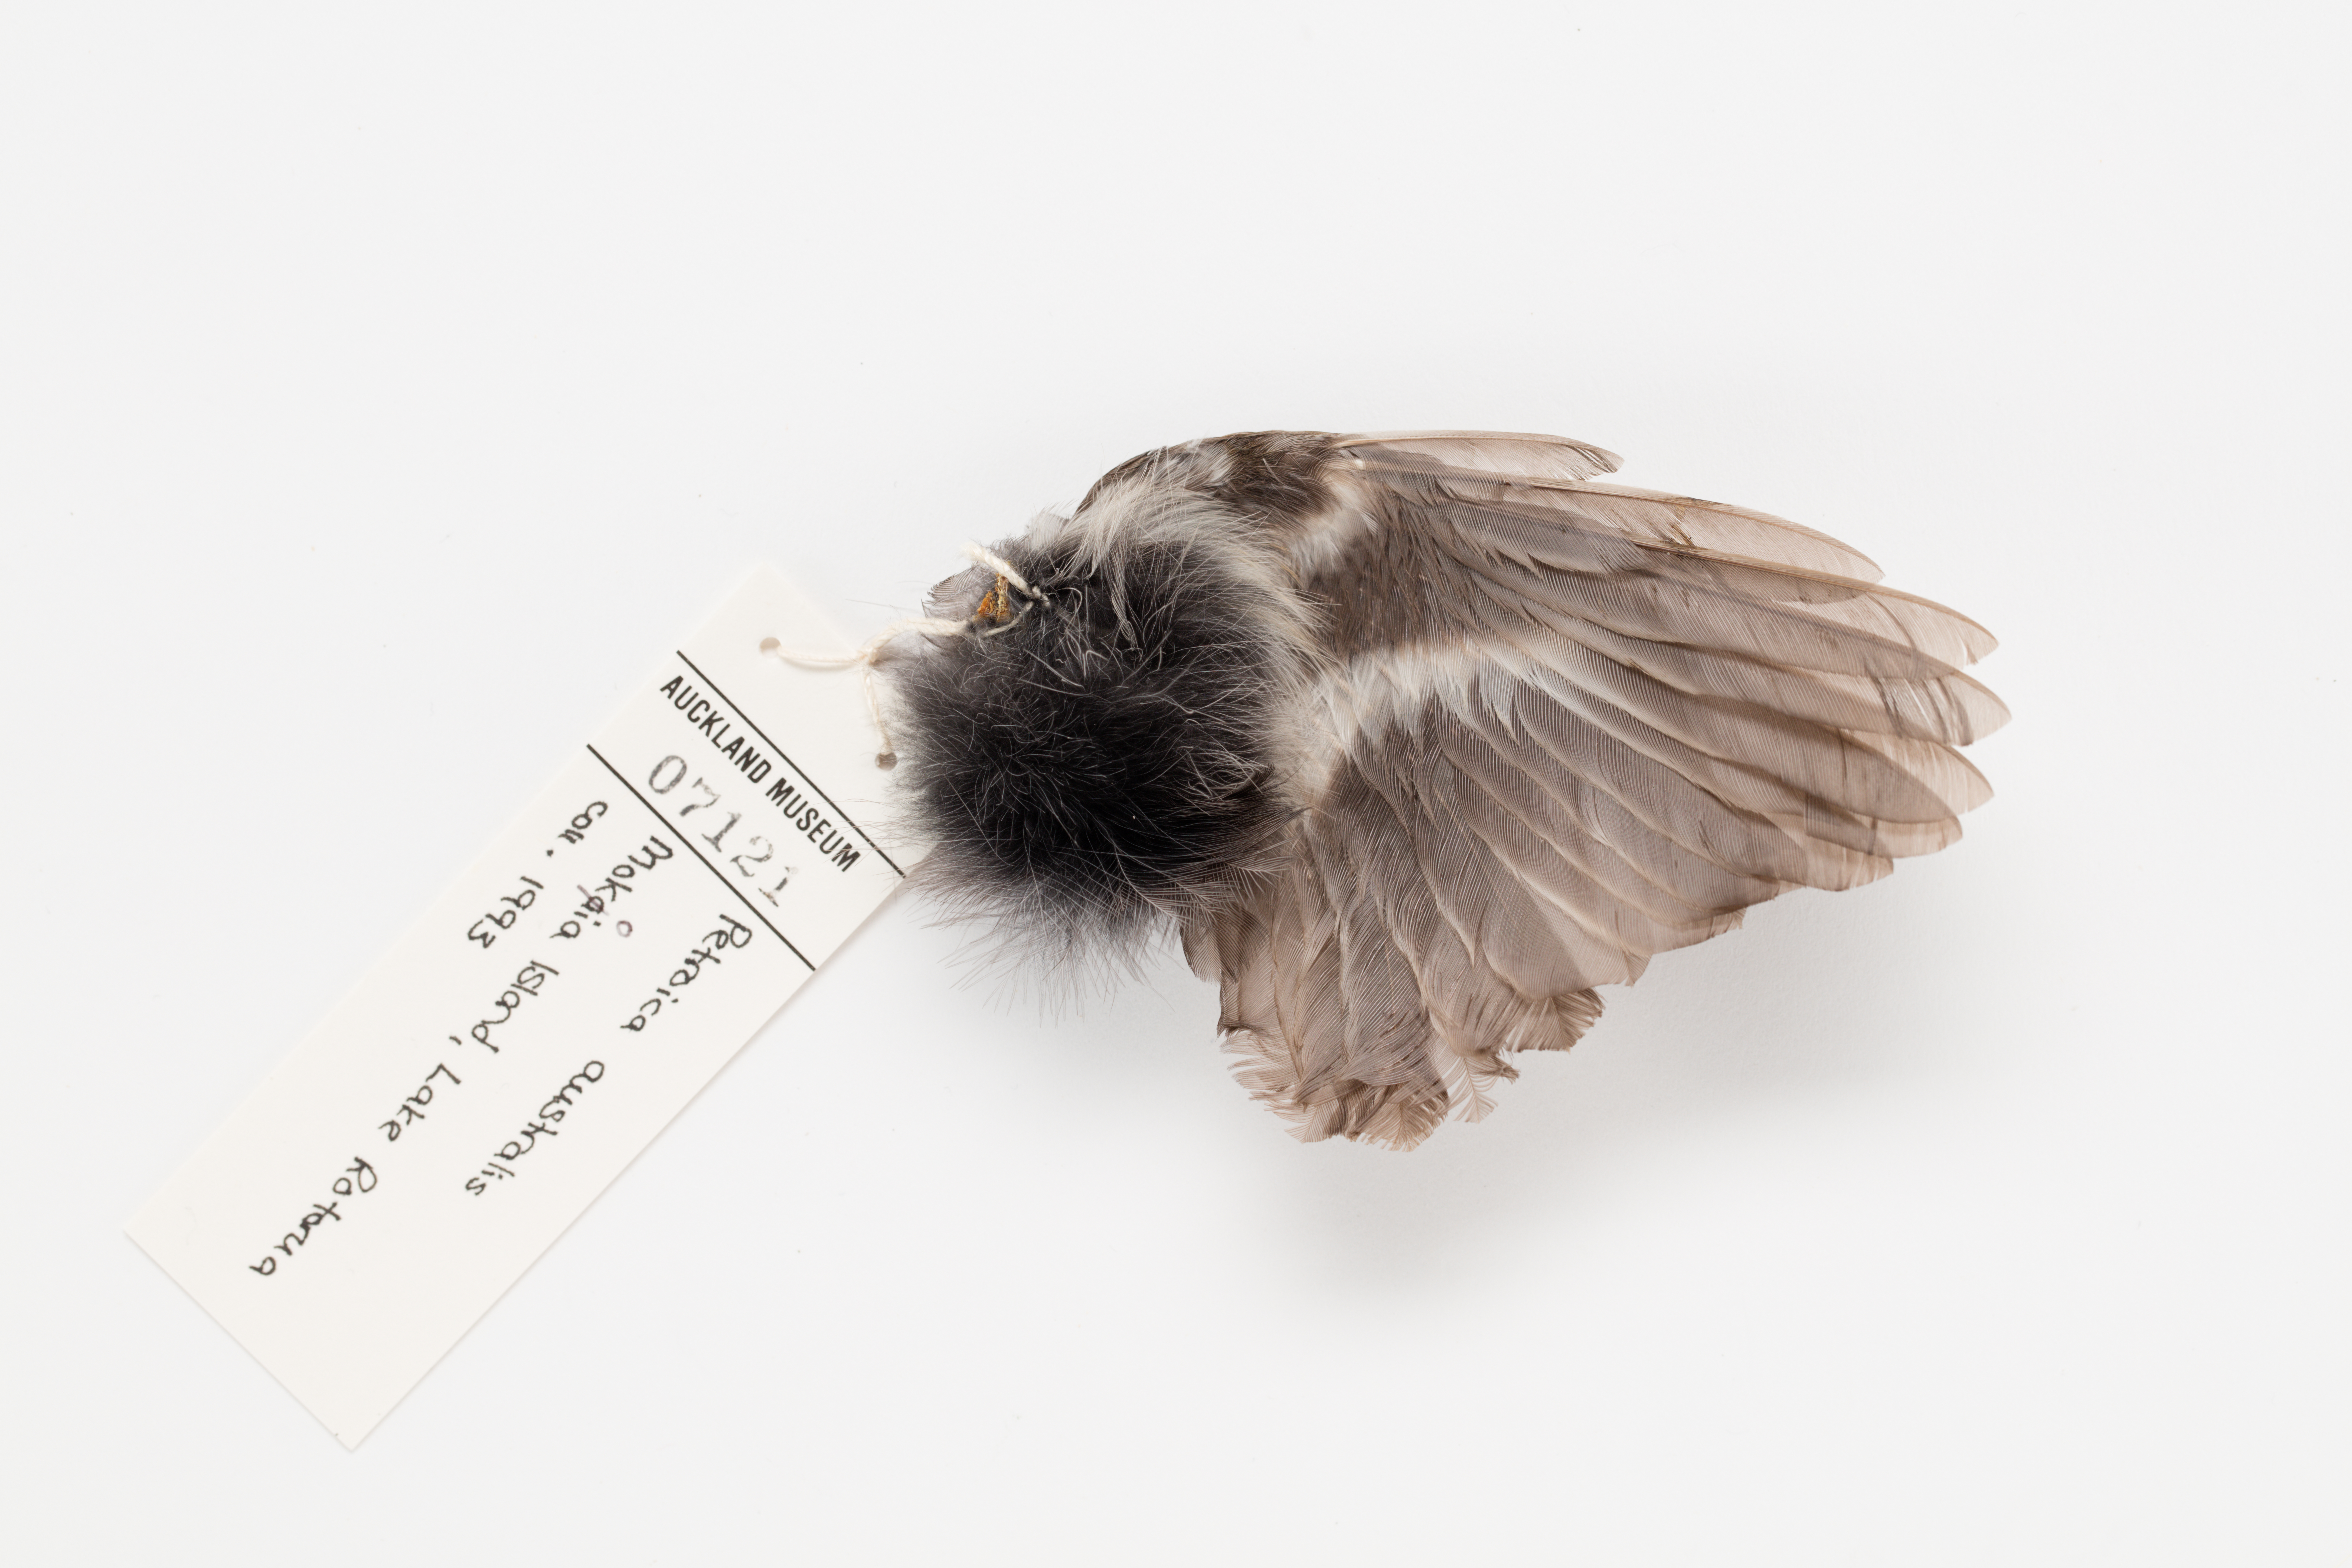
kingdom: Animalia
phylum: Chordata
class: Aves
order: Passeriformes
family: Petroicidae
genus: Petroica
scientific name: Petroica australis
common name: New zealand robin
